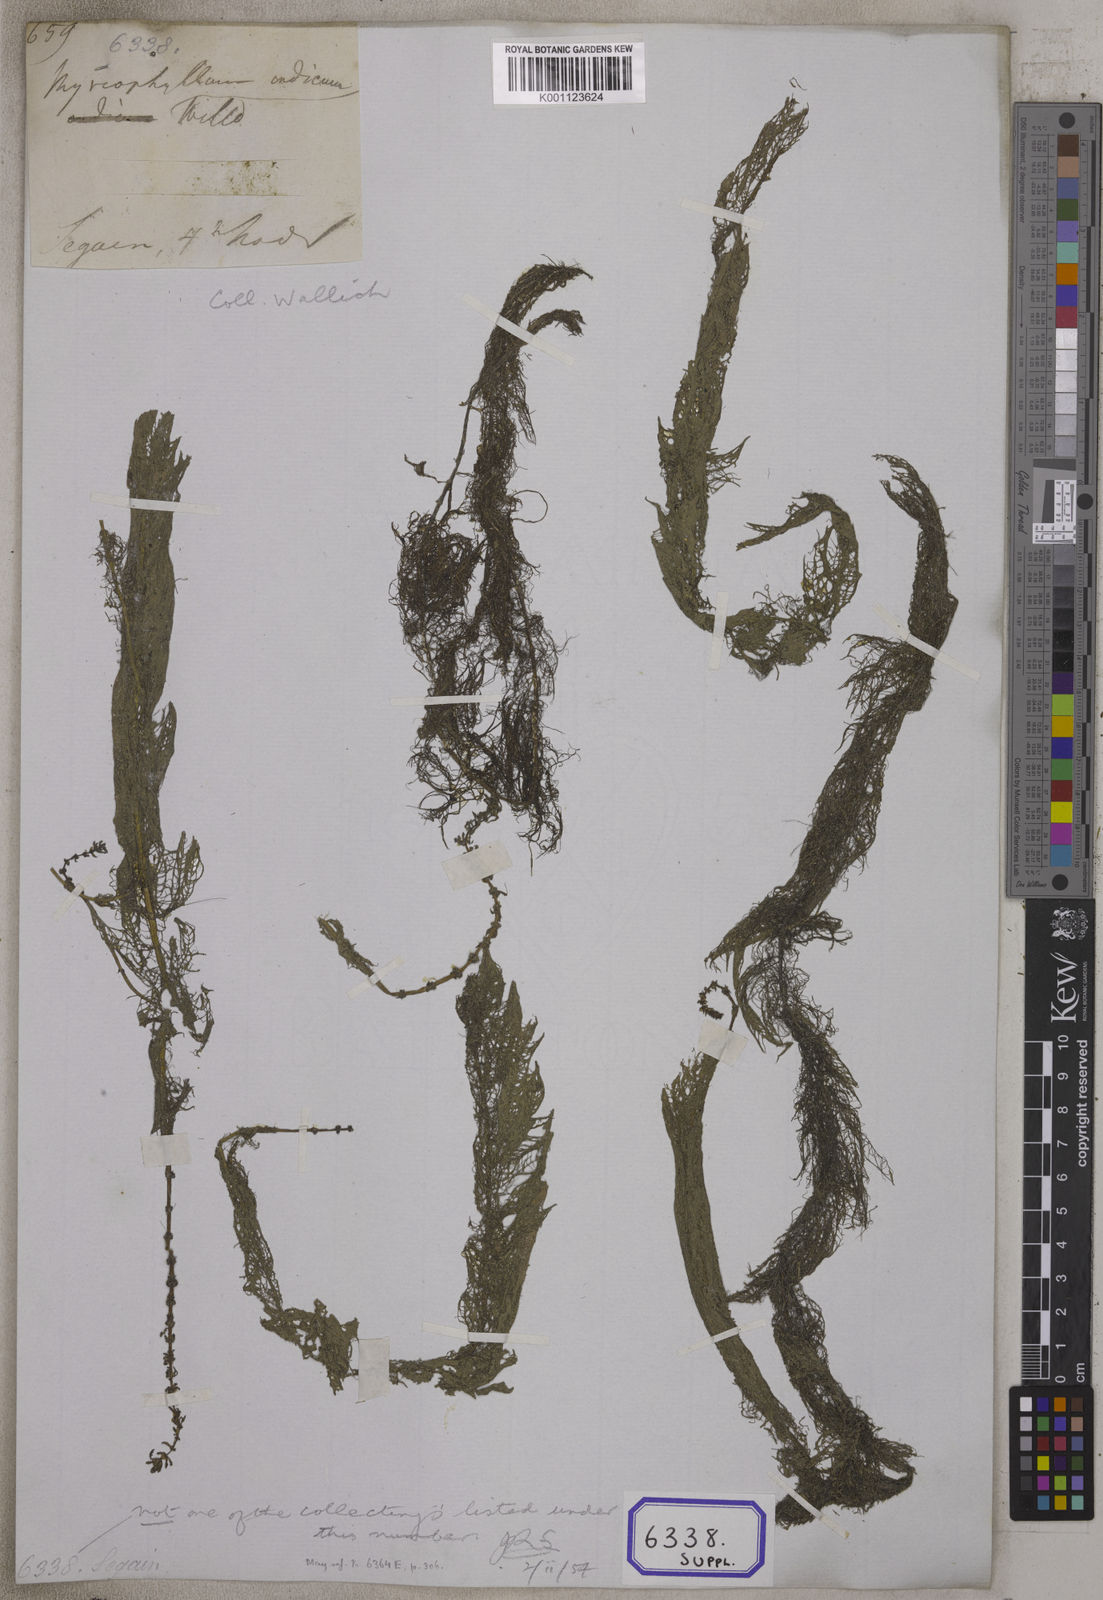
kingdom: Plantae
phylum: Tracheophyta
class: Magnoliopsida
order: Saxifragales
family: Haloragaceae
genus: Myriophyllum
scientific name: Myriophyllum indicum
